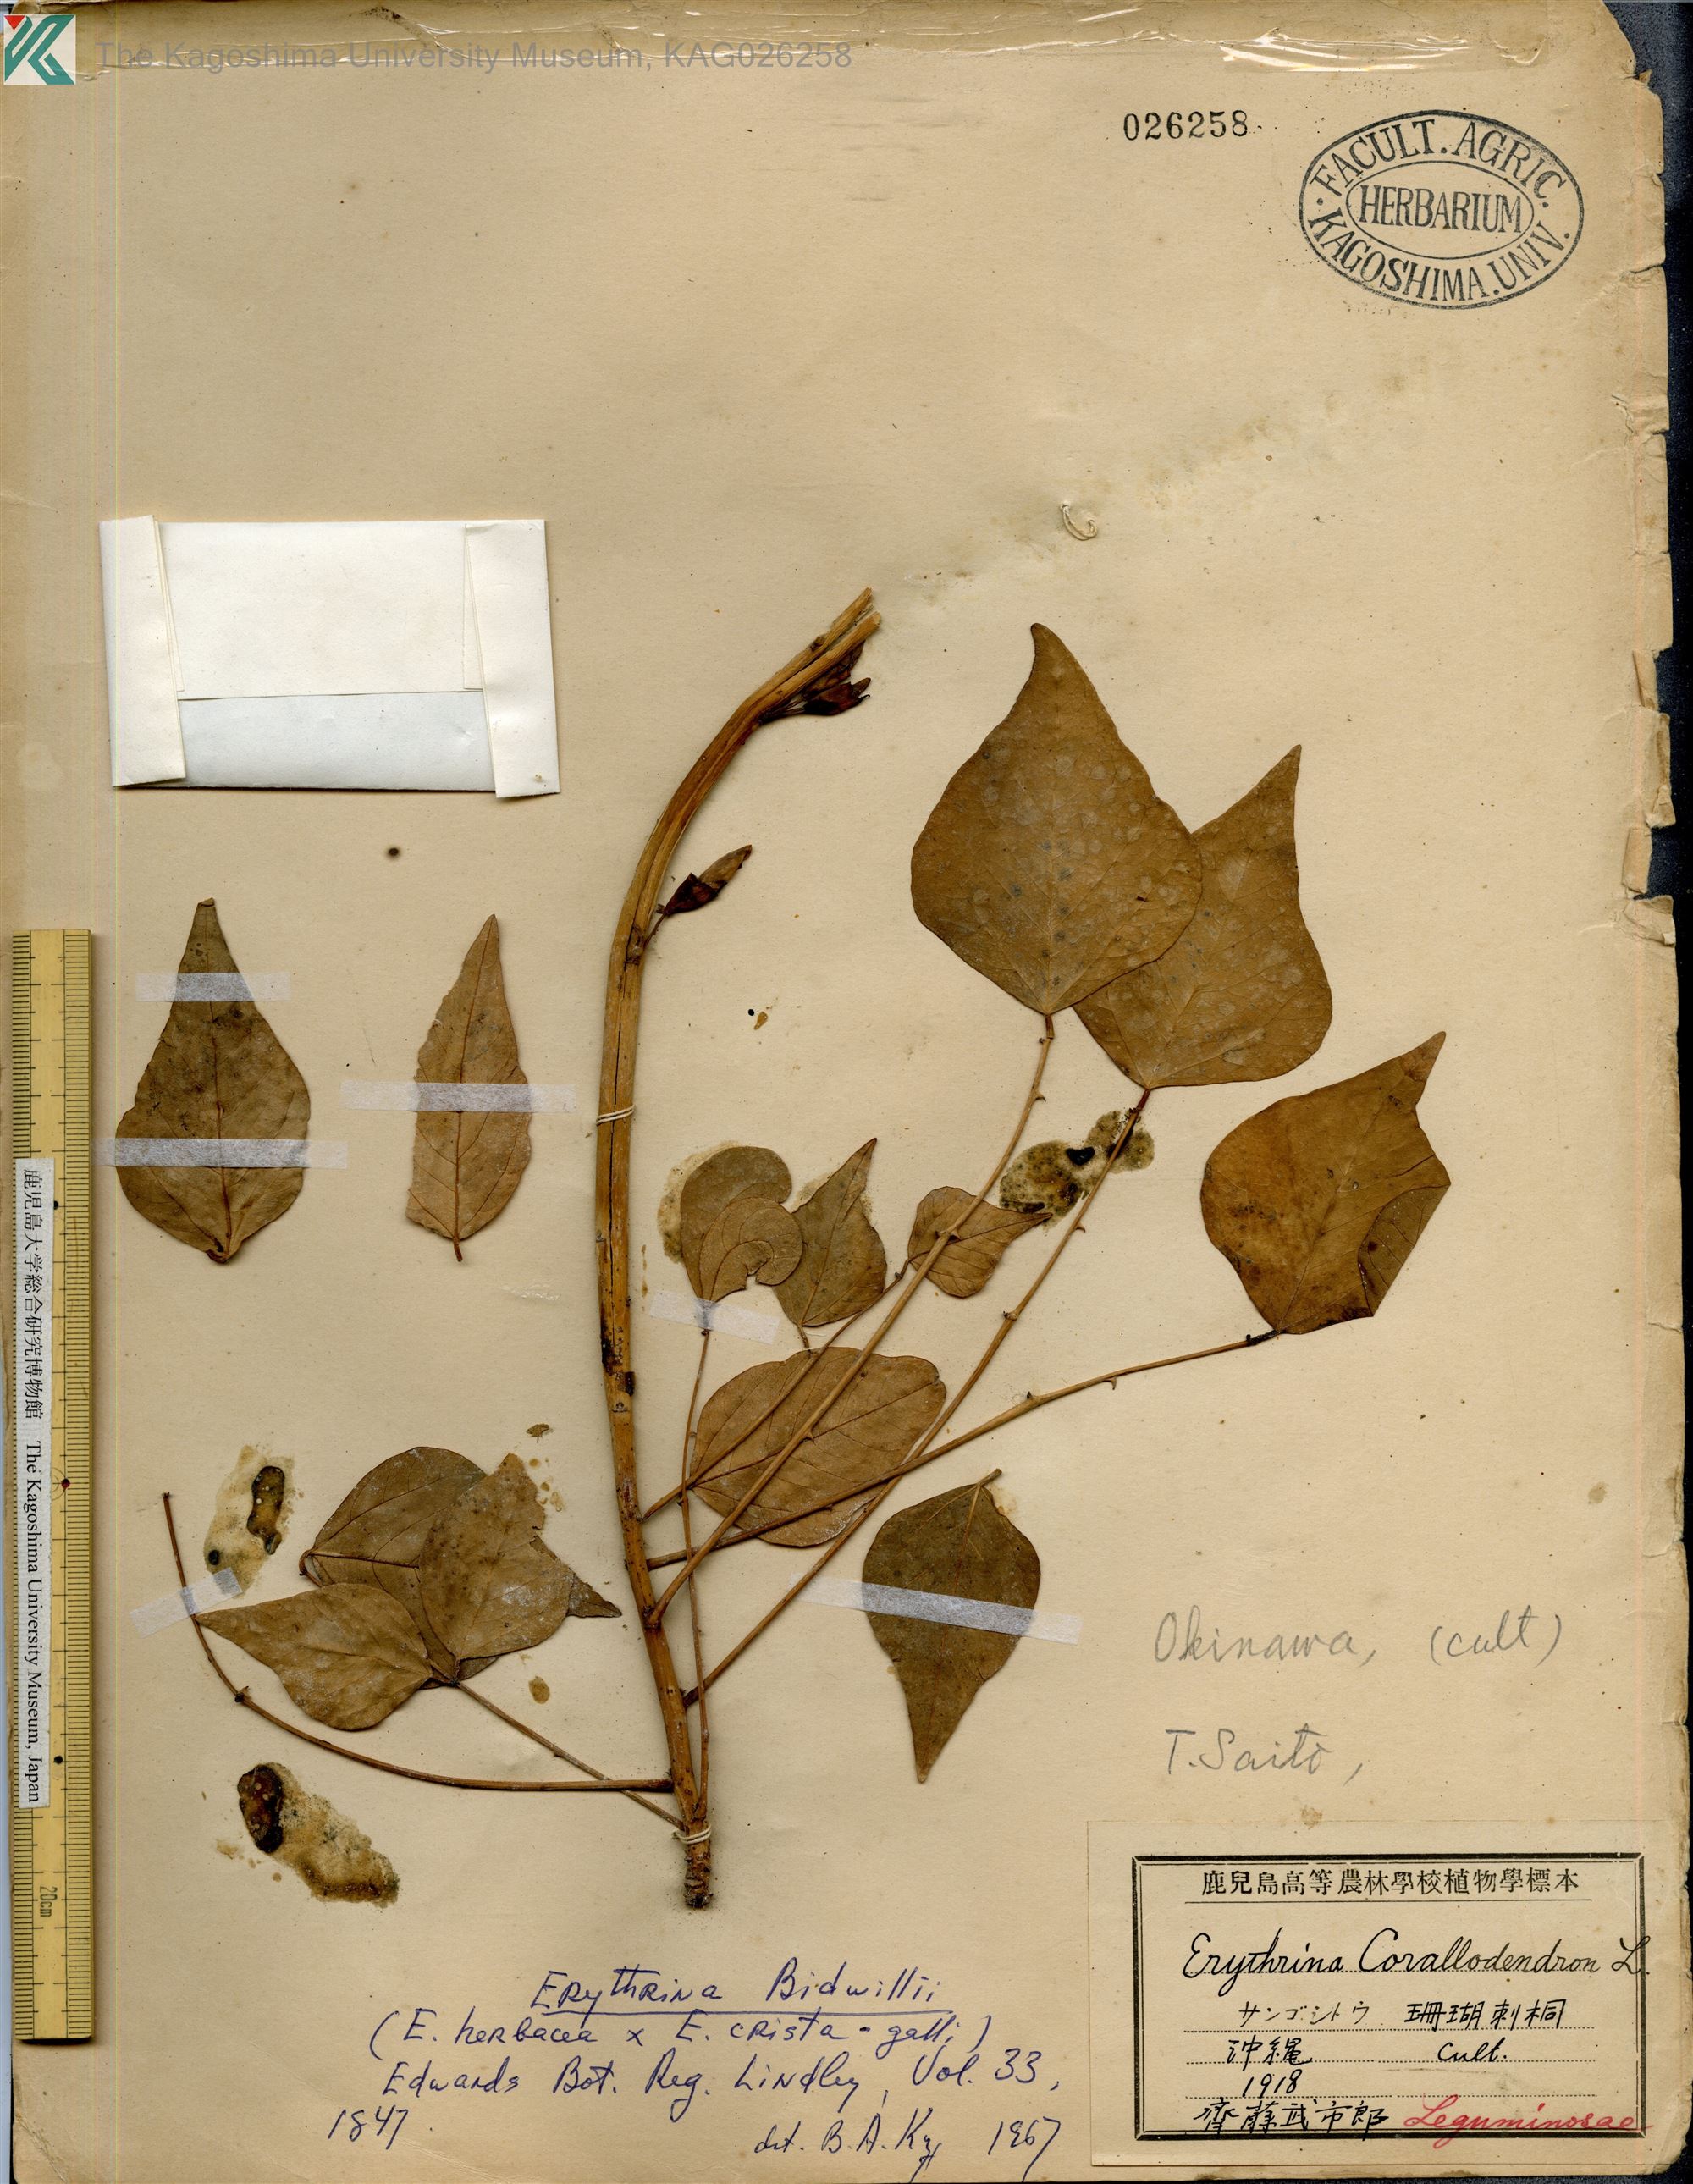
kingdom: Plantae
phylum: Tracheophyta
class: Magnoliopsida
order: Fabales
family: Fabaceae
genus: Erythrina
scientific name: Erythrina bidwillii
